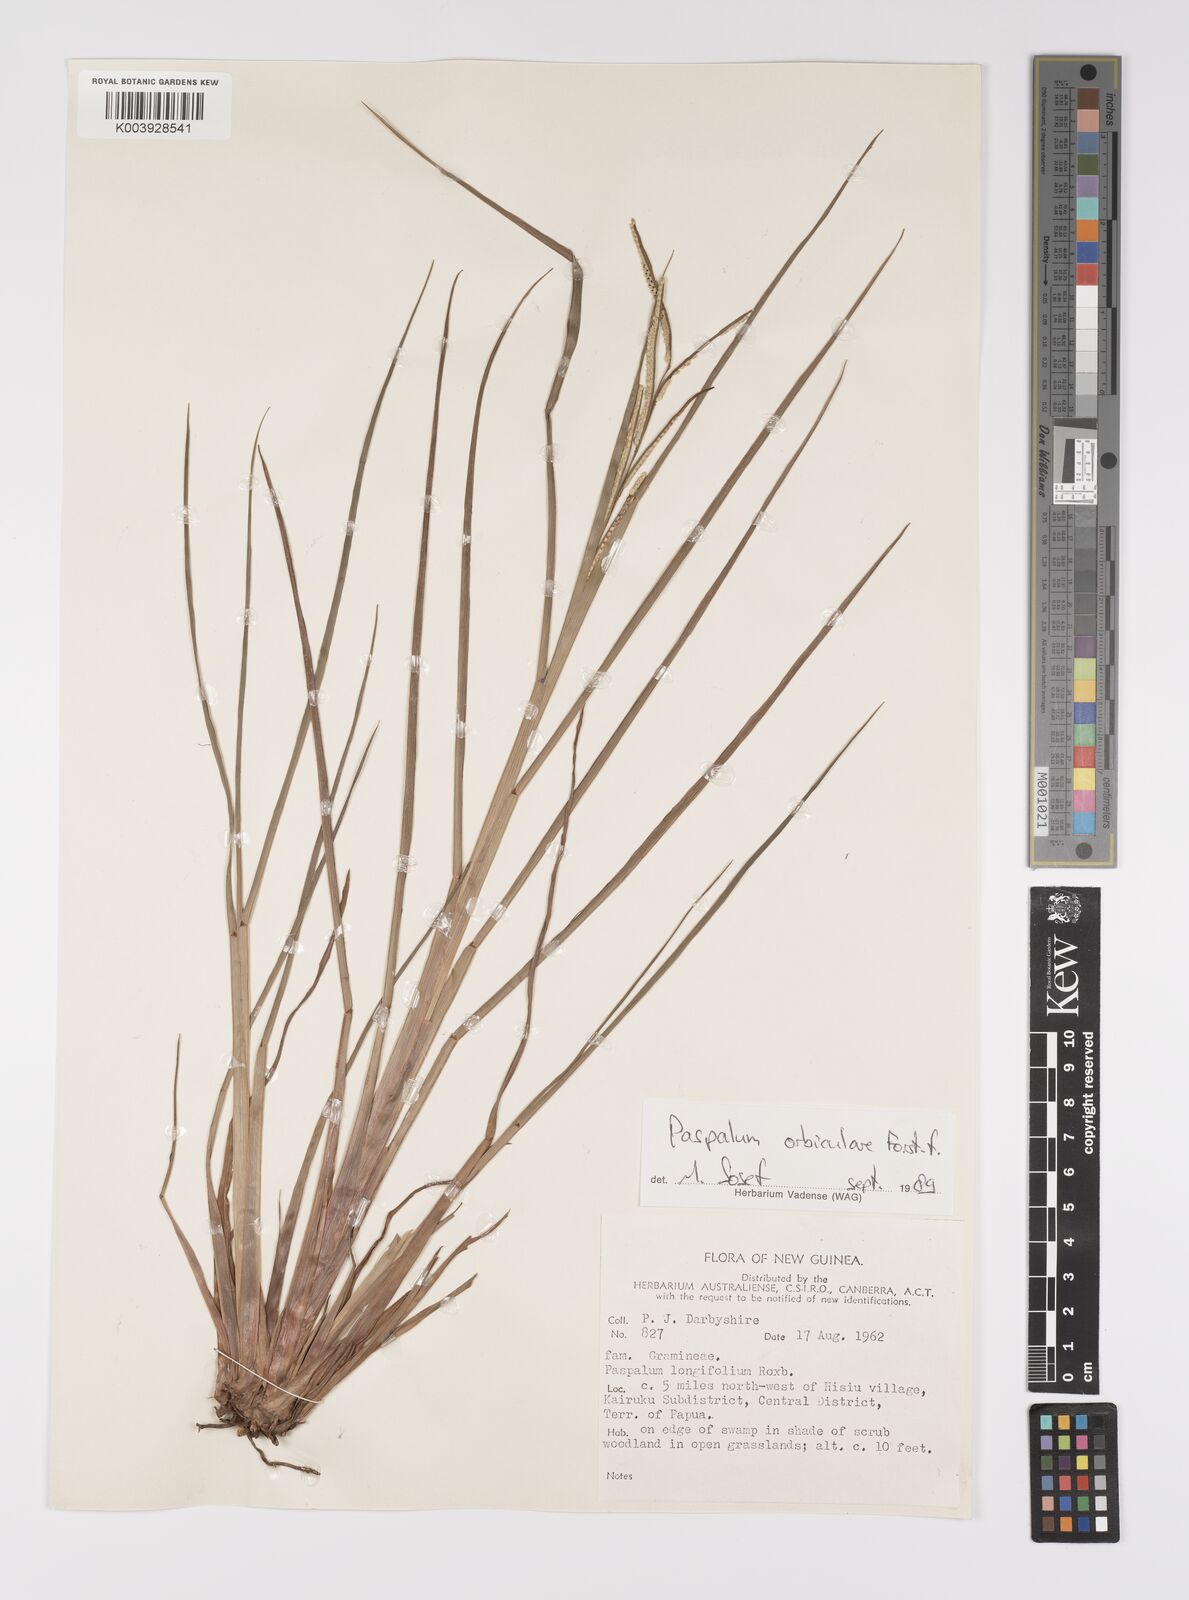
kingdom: Plantae
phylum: Tracheophyta
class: Liliopsida
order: Poales
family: Poaceae
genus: Paspalum
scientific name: Paspalum scrobiculatum
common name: Kodo millet
